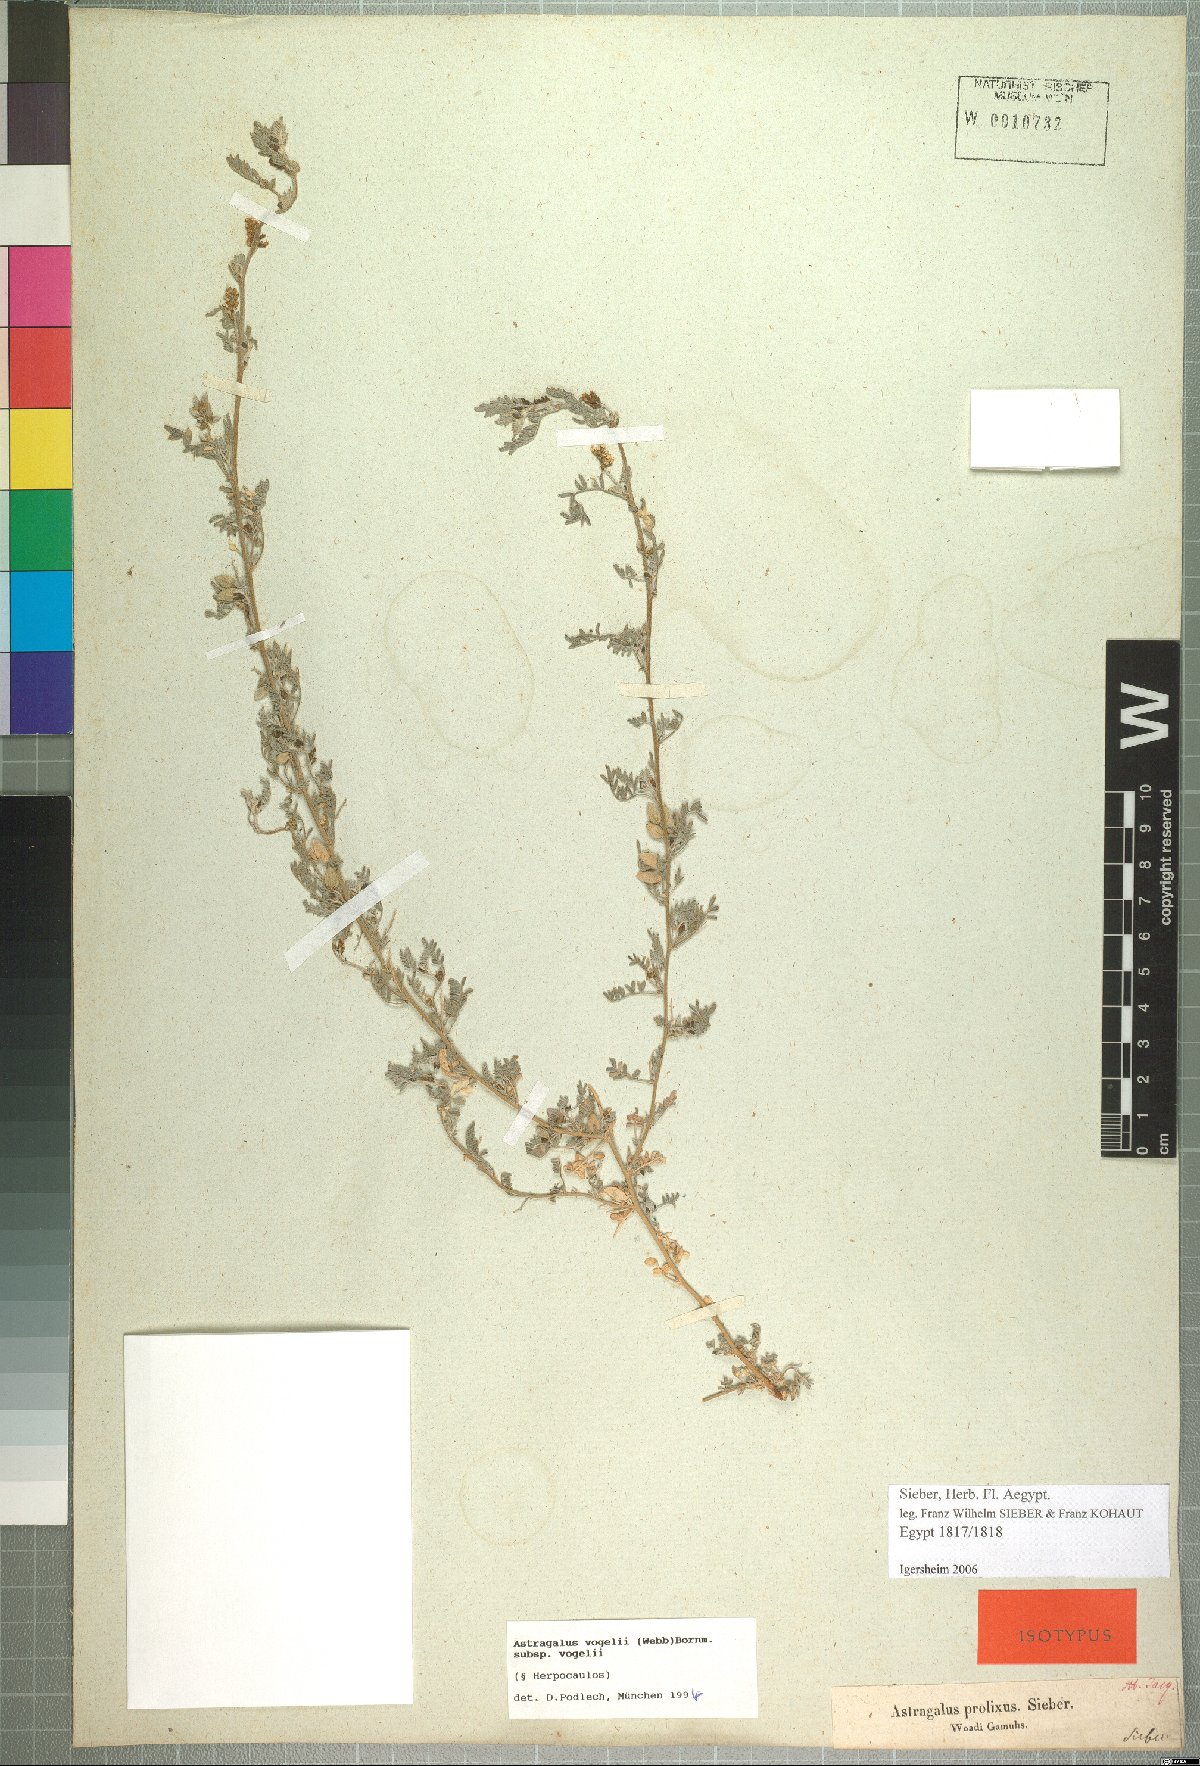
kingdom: Plantae
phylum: Tracheophyta
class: Magnoliopsida
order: Fabales
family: Fabaceae
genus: Astragalus
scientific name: Astragalus vogelii
